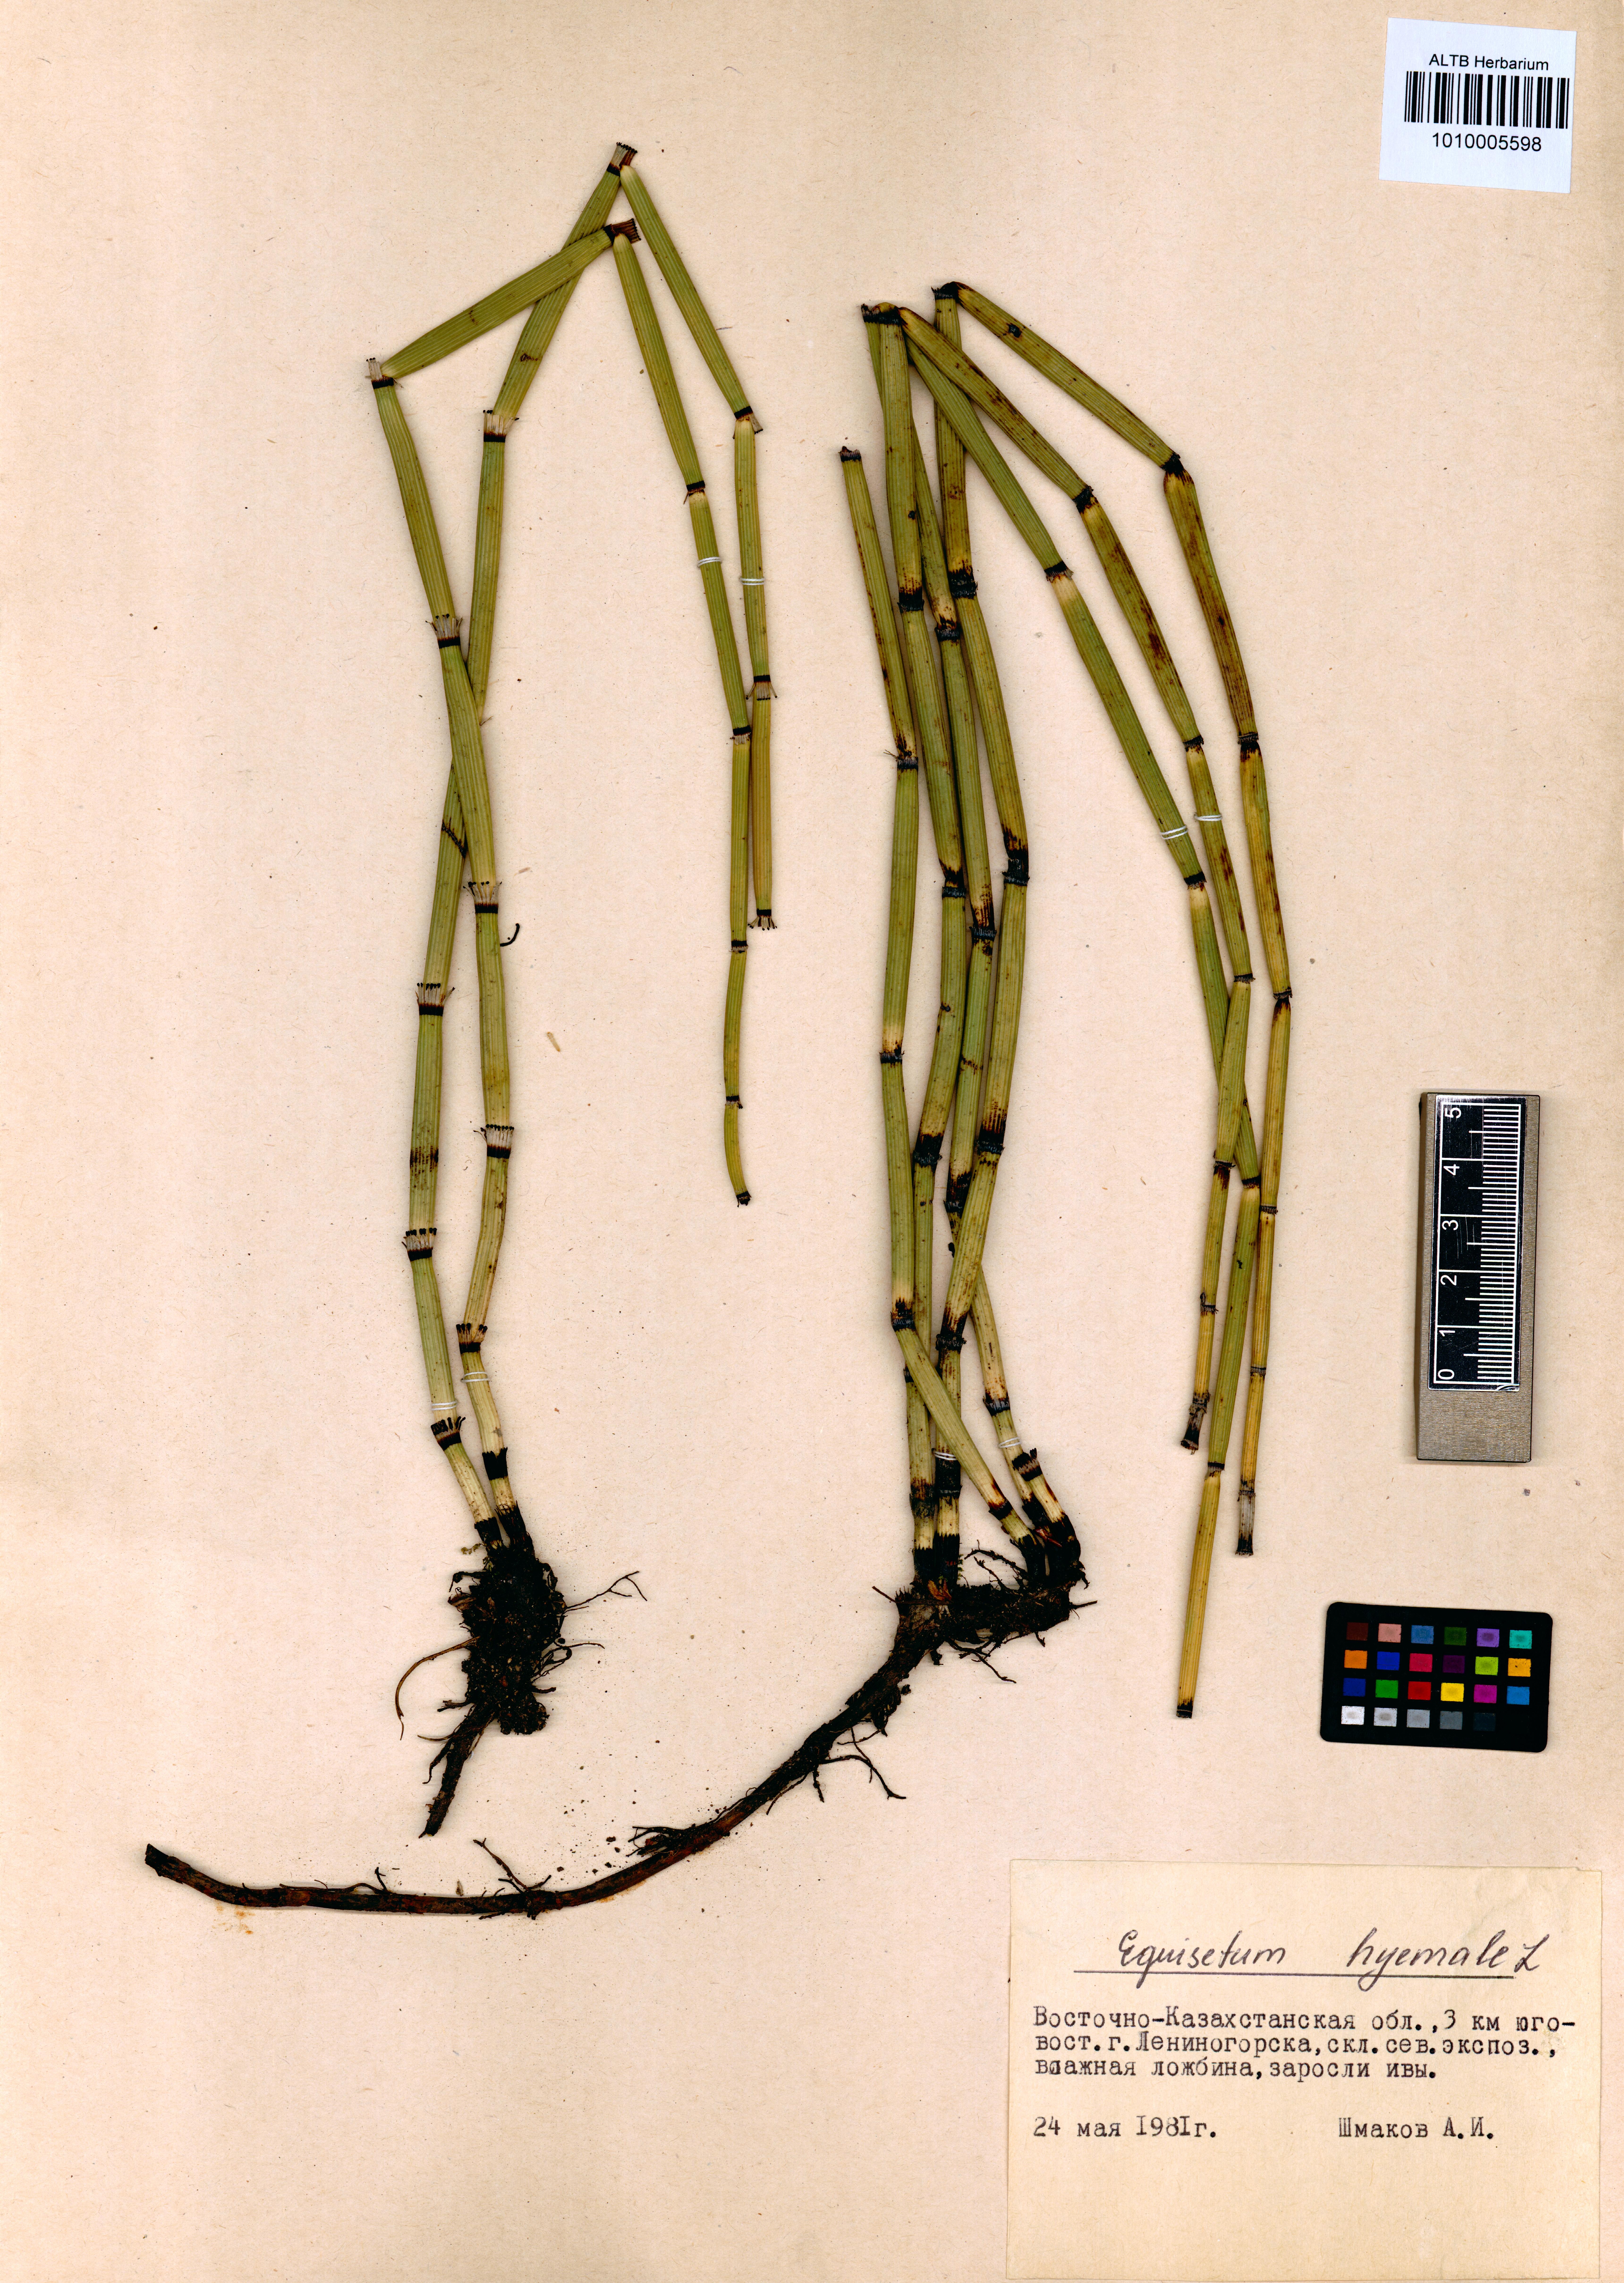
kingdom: Plantae
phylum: Tracheophyta
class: Polypodiopsida
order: Equisetales
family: Equisetaceae
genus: Equisetum
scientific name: Equisetum hyemale
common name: Rough horsetail
